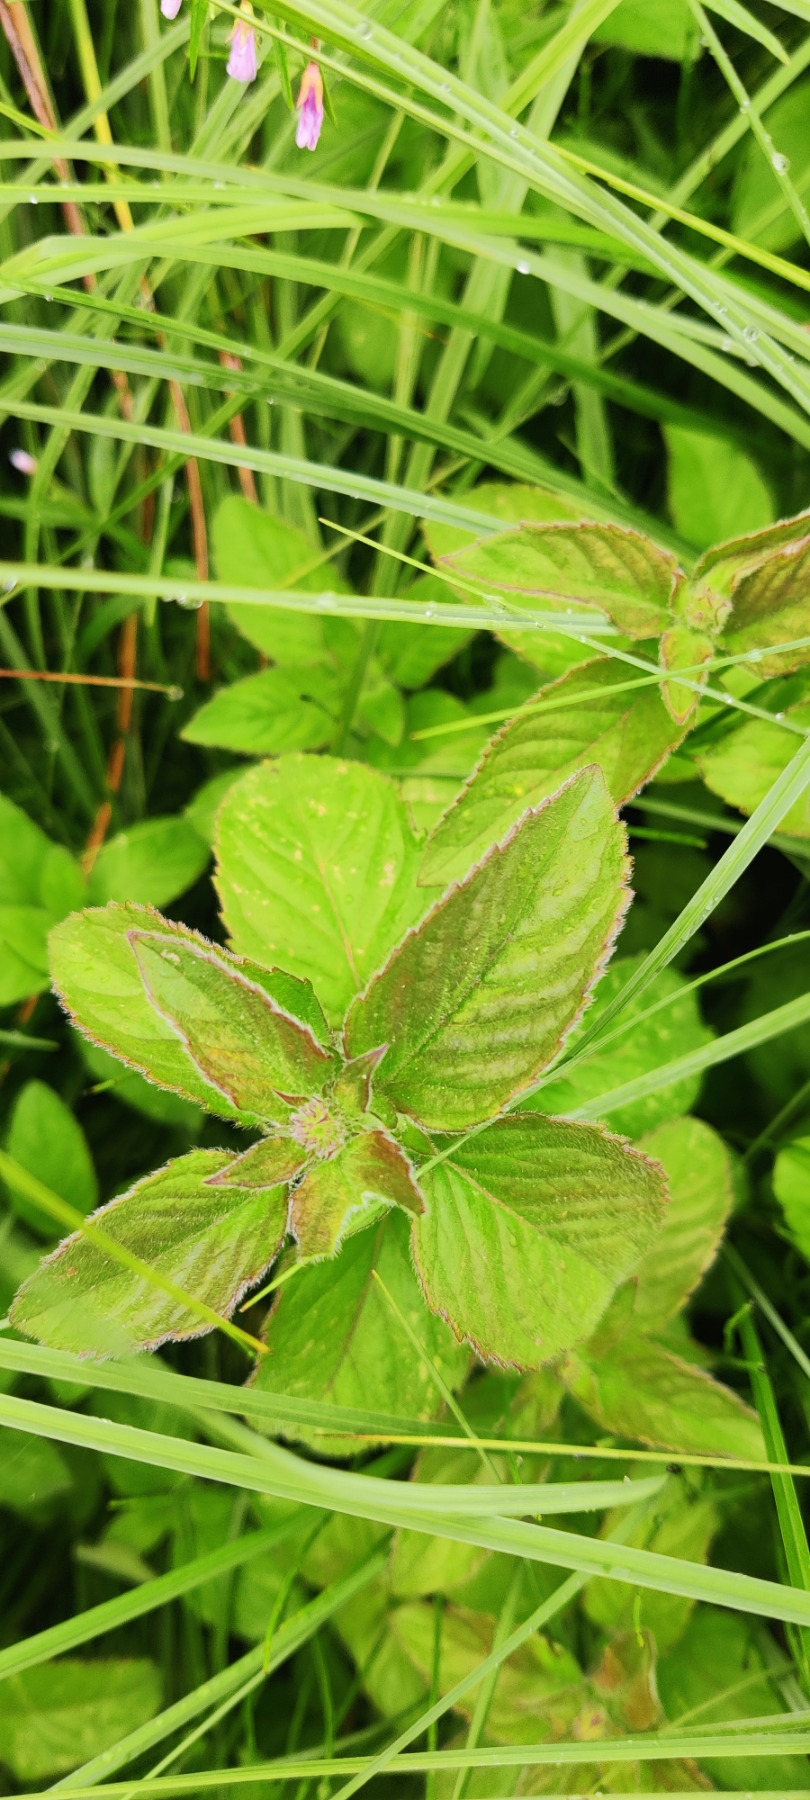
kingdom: Plantae
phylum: Tracheophyta
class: Magnoliopsida
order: Lamiales
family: Lamiaceae
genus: Mentha
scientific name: Mentha aquatica
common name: Vand-mynte
